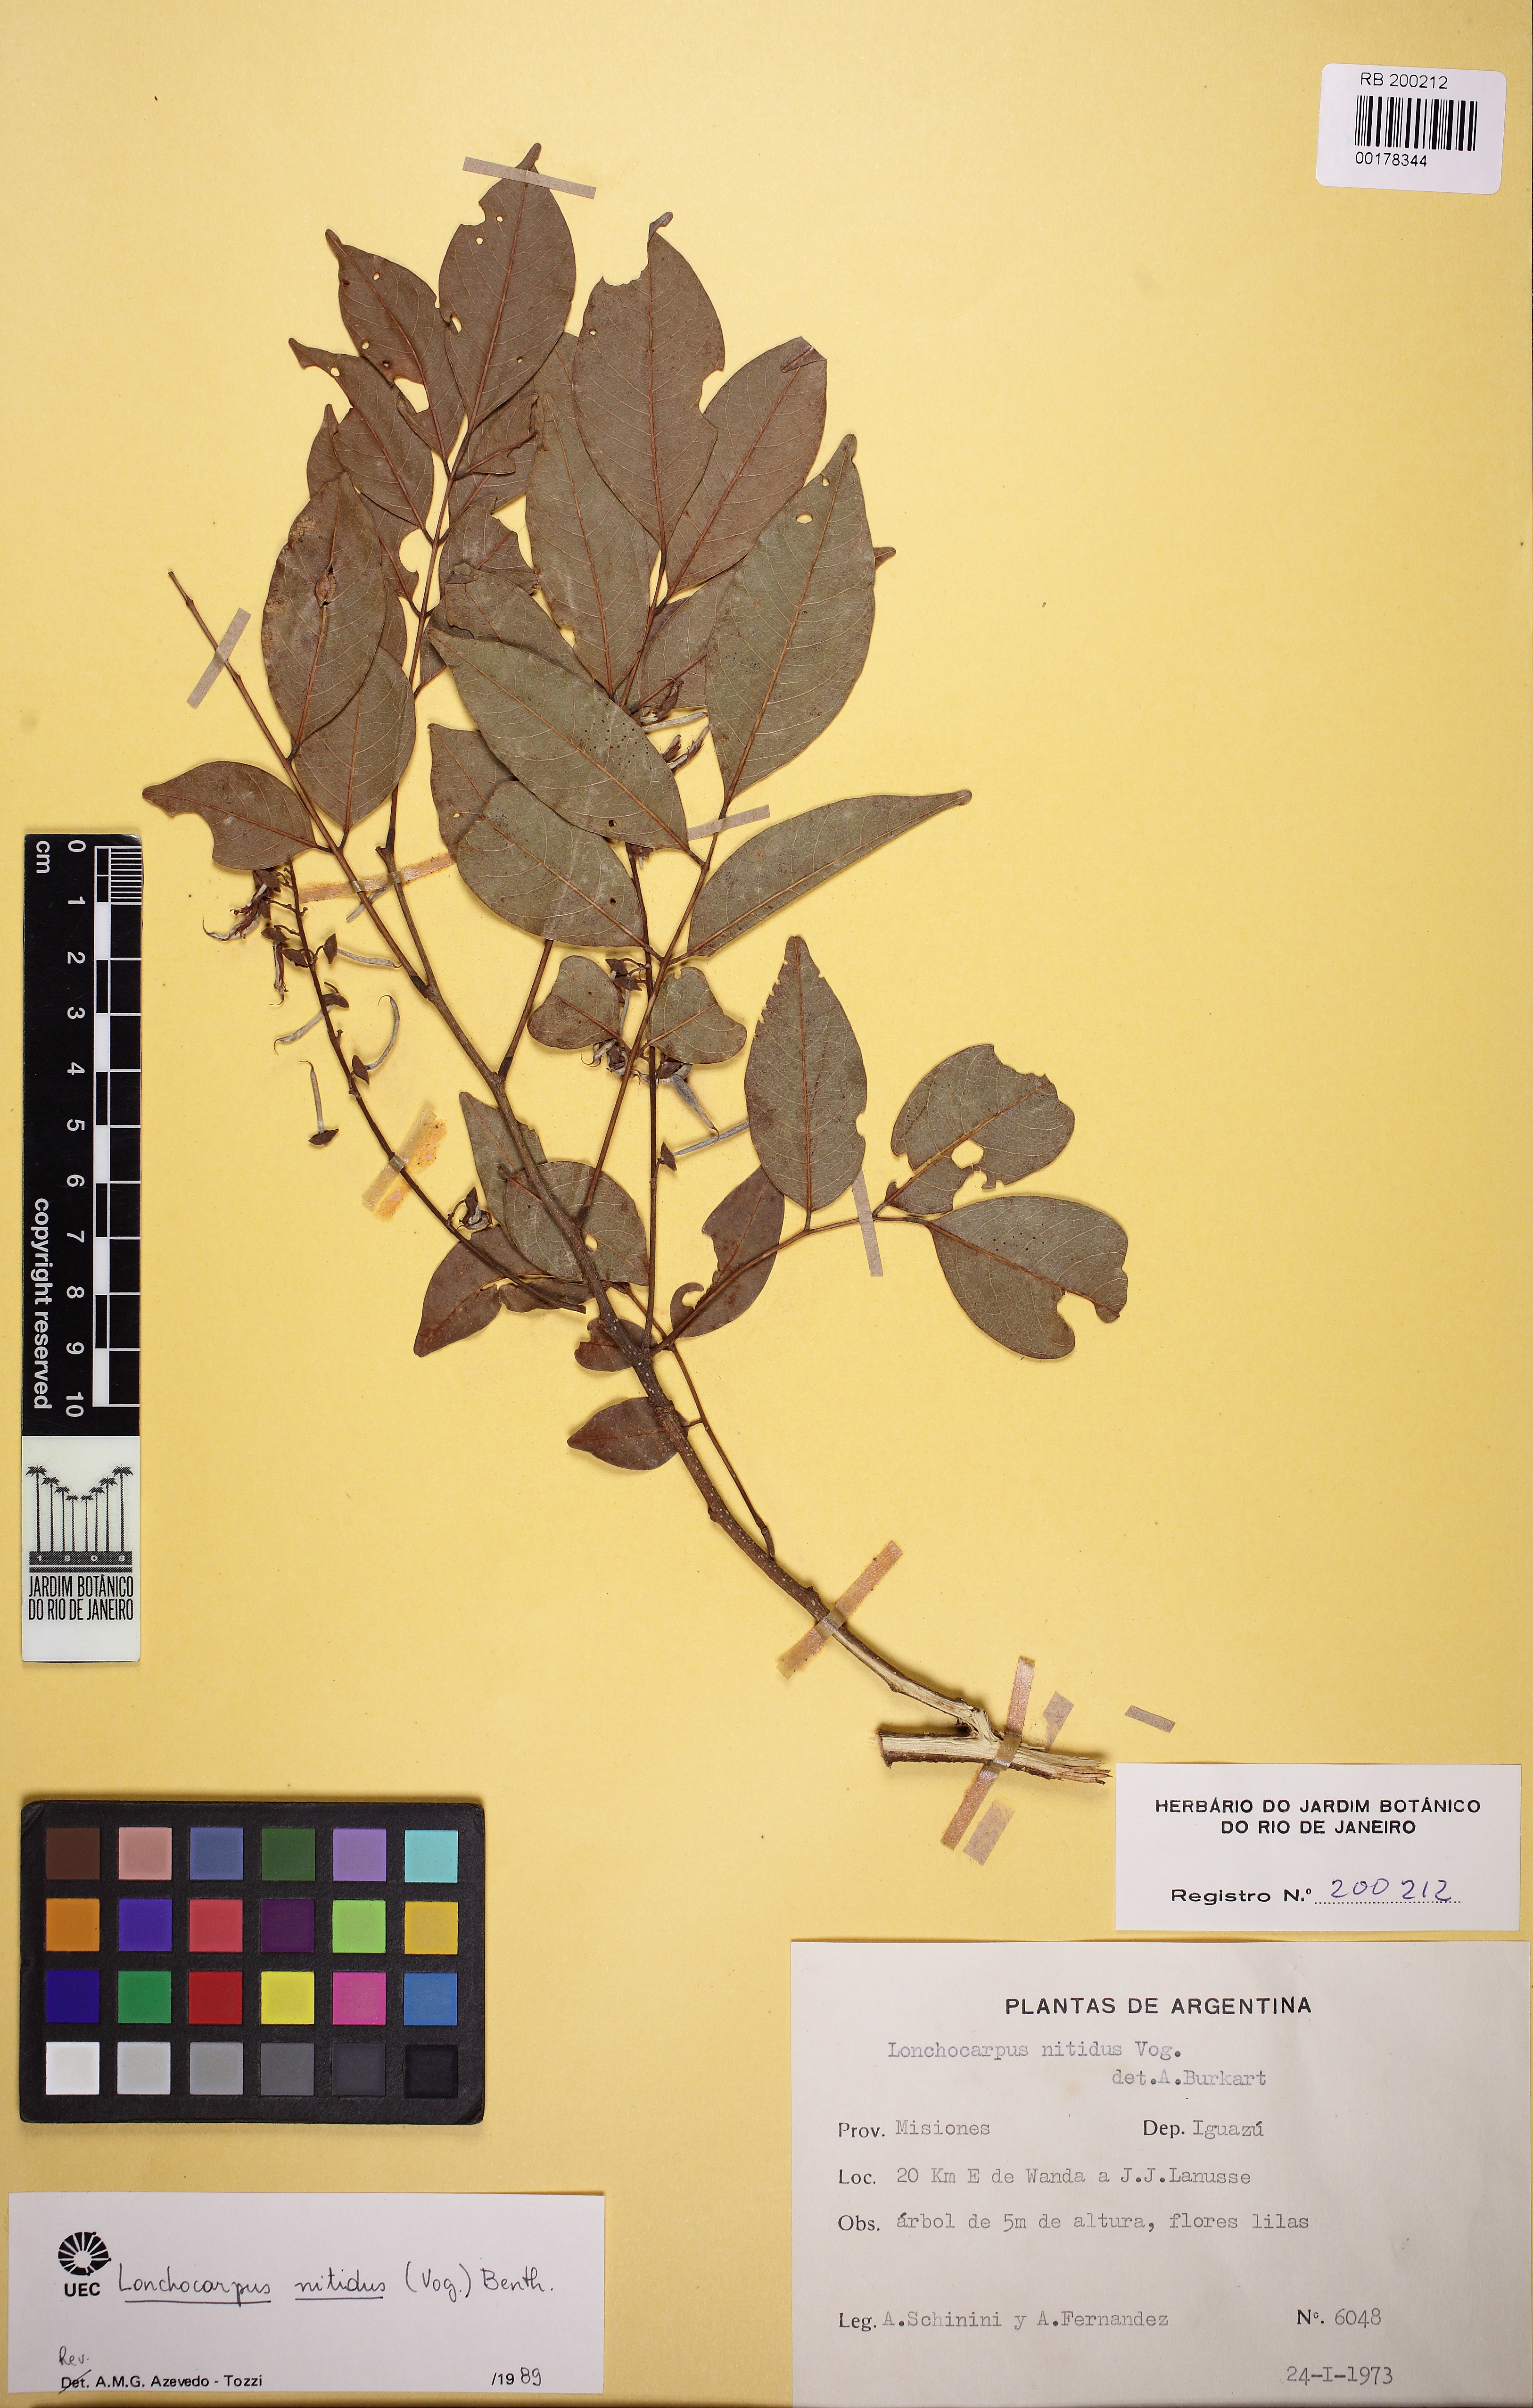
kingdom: Plantae
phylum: Tracheophyta
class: Magnoliopsida
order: Fabales
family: Fabaceae
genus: Lonchocarpus
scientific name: Lonchocarpus nitidus
